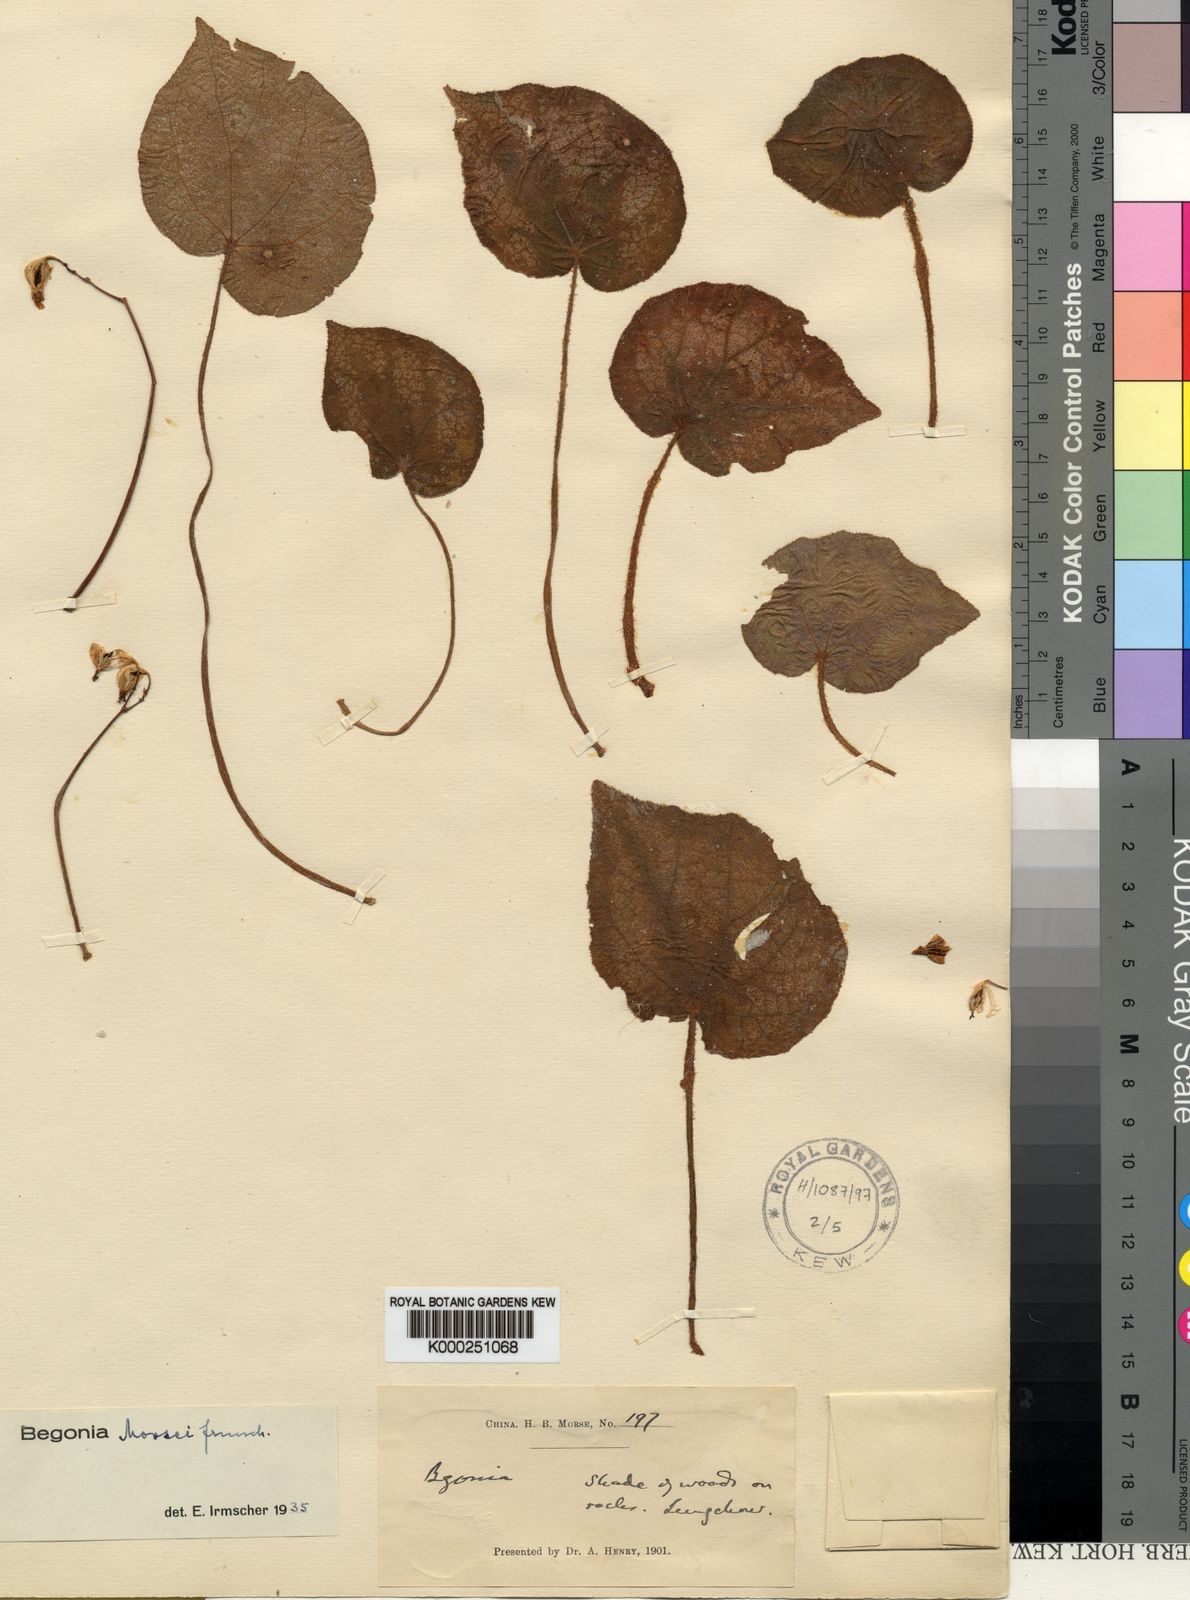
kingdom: Plantae
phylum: Tracheophyta
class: Magnoliopsida
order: Cucurbitales
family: Begoniaceae
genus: Begonia
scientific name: Begonia morsei
